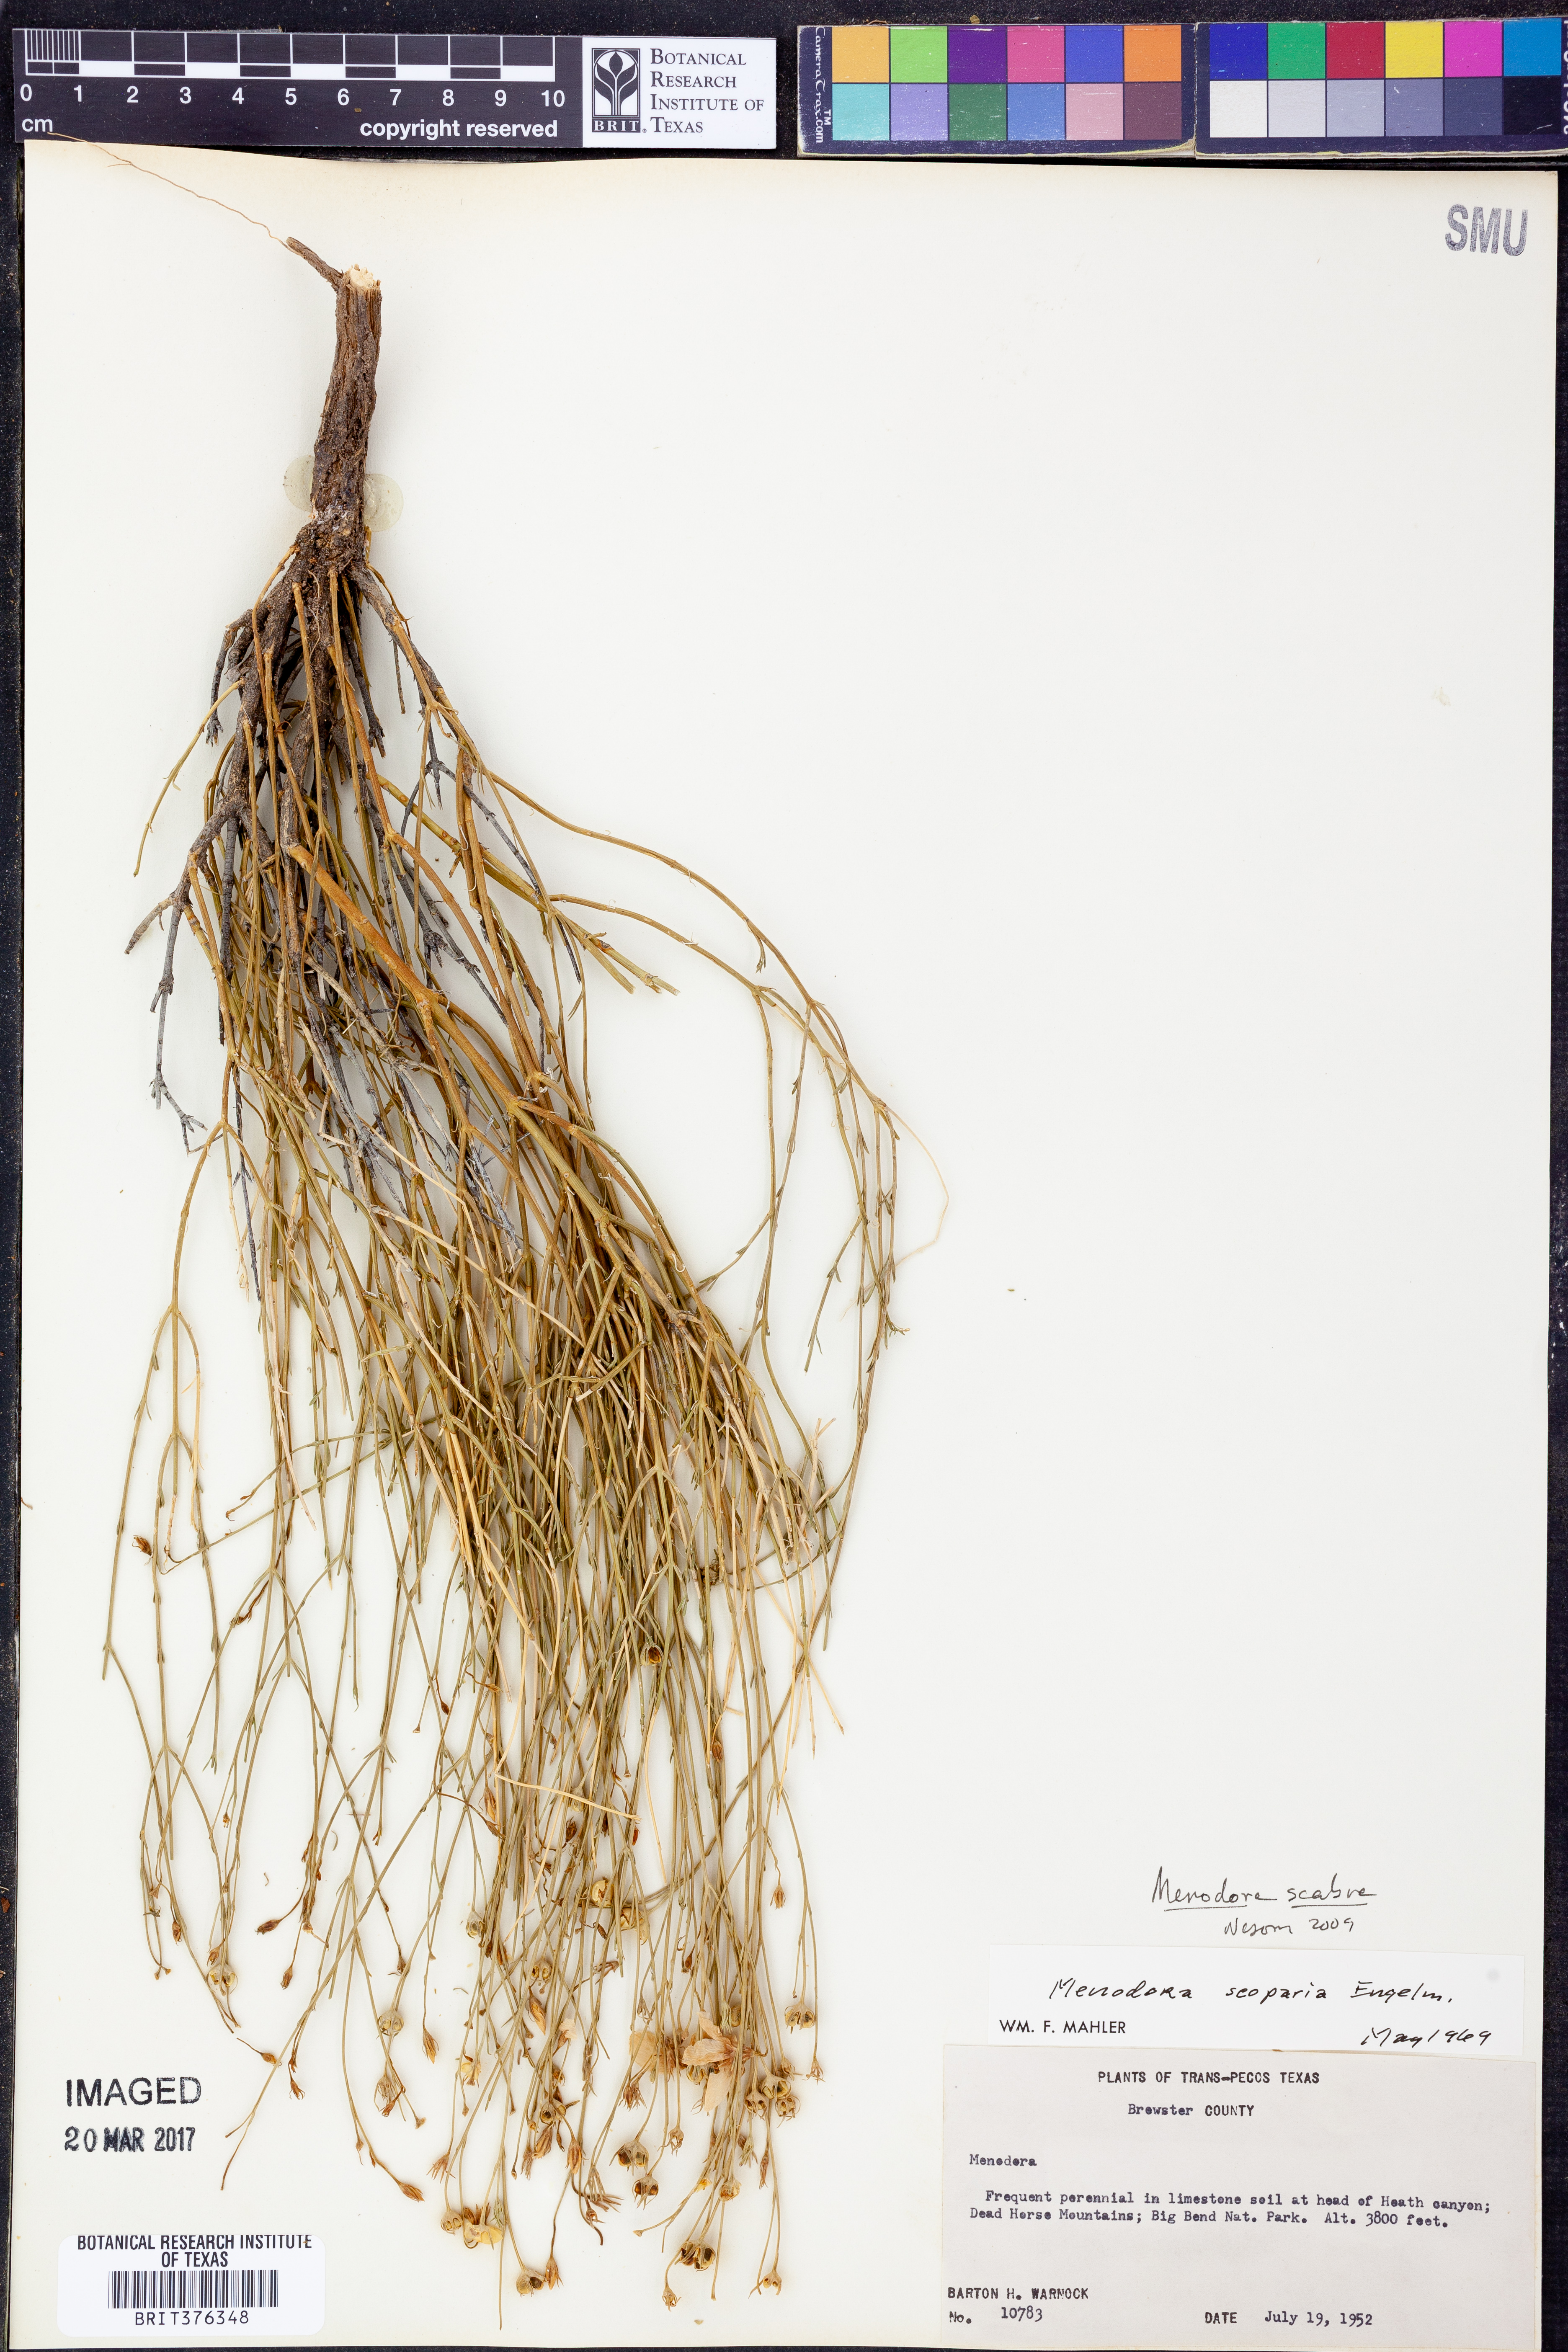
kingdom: Plantae
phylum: Tracheophyta
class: Magnoliopsida
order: Lamiales
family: Oleaceae
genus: Menodora
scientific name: Menodora scabra
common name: Rough menodora
